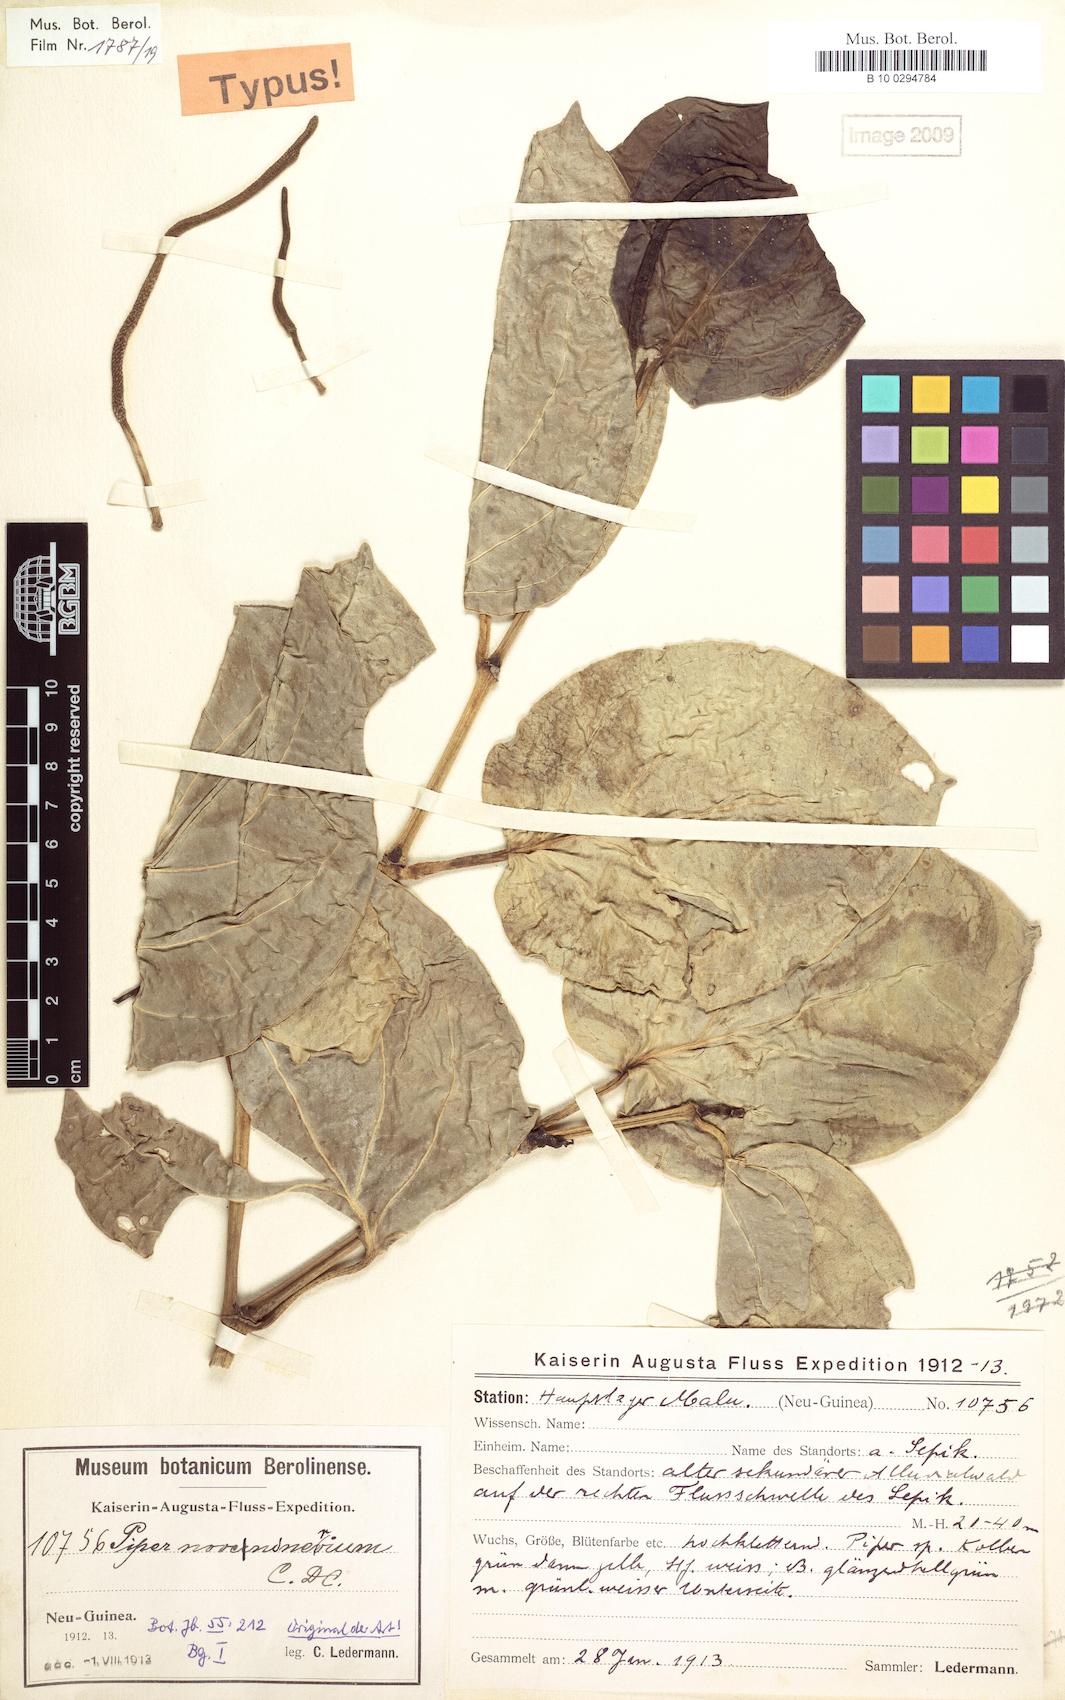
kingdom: Plantae
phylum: Tracheophyta
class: Magnoliopsida
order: Piperales
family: Piperaceae
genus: Piper
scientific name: Piper noveninervium
